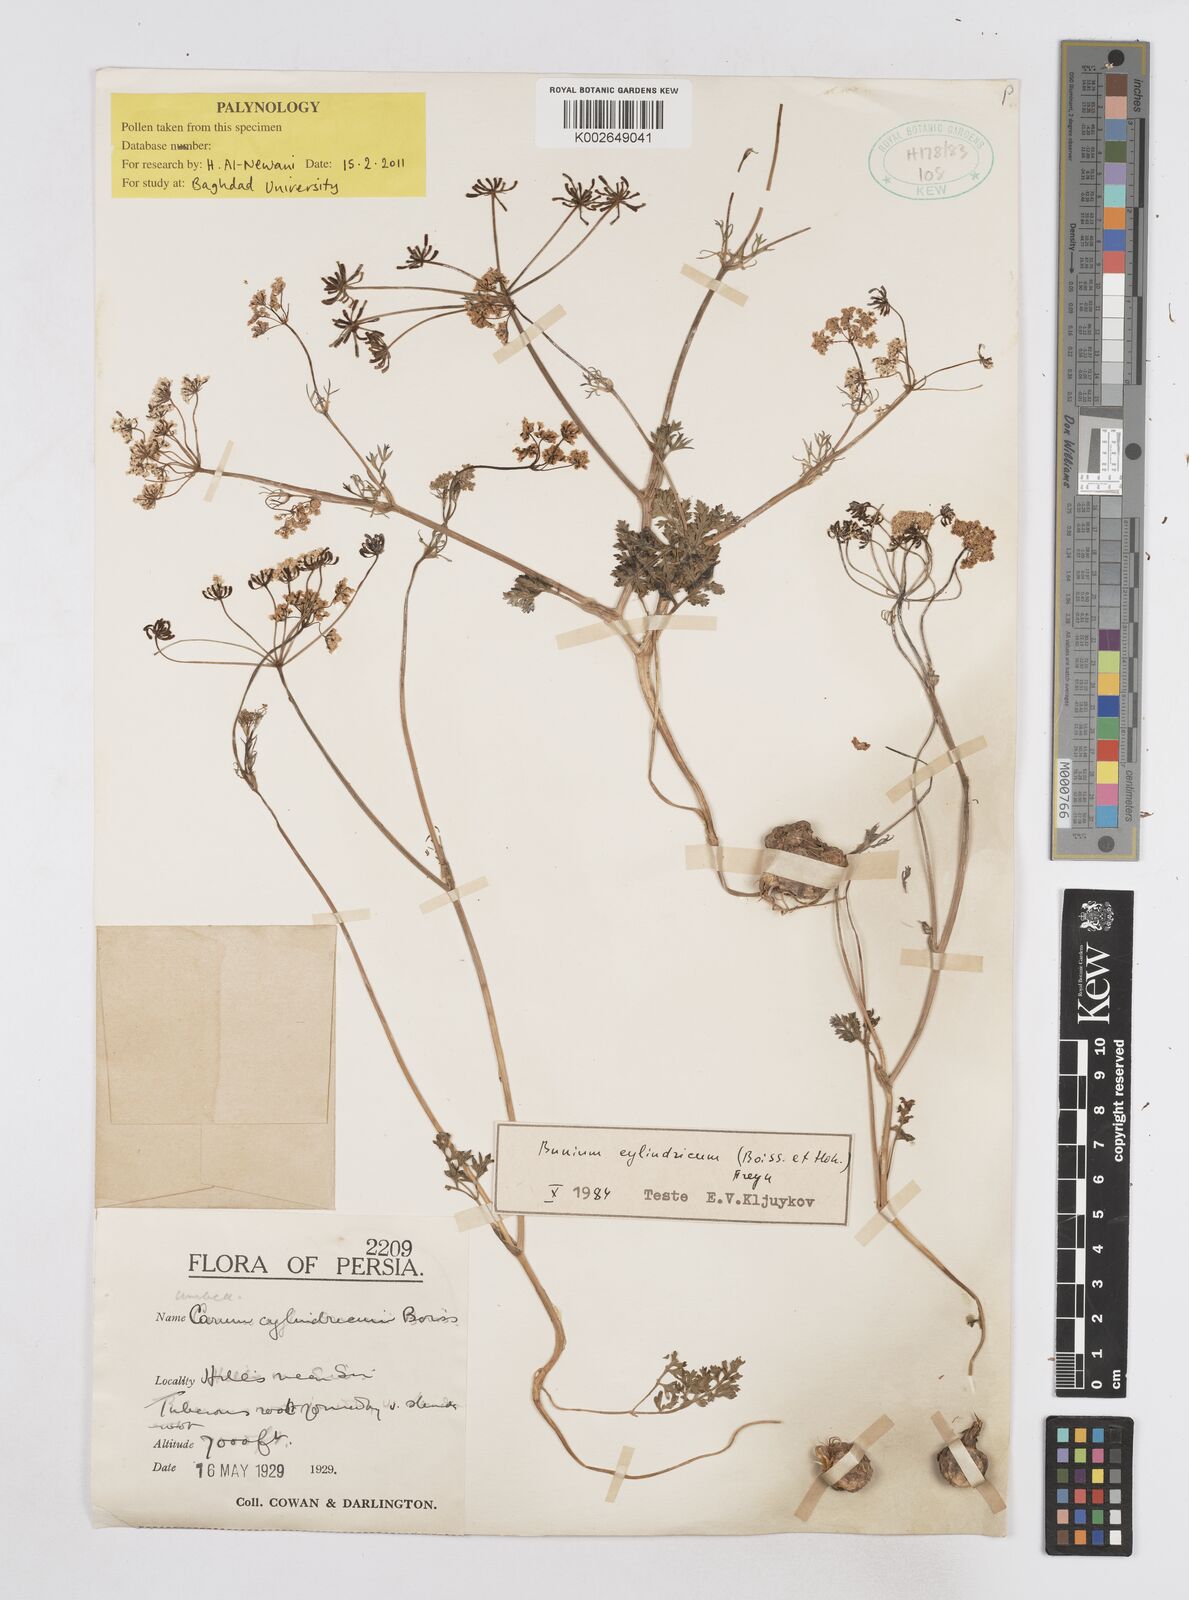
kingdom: Plantae
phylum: Tracheophyta
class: Magnoliopsida
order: Apiales
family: Apiaceae
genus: Elwendia
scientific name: Elwendia cylindrica
